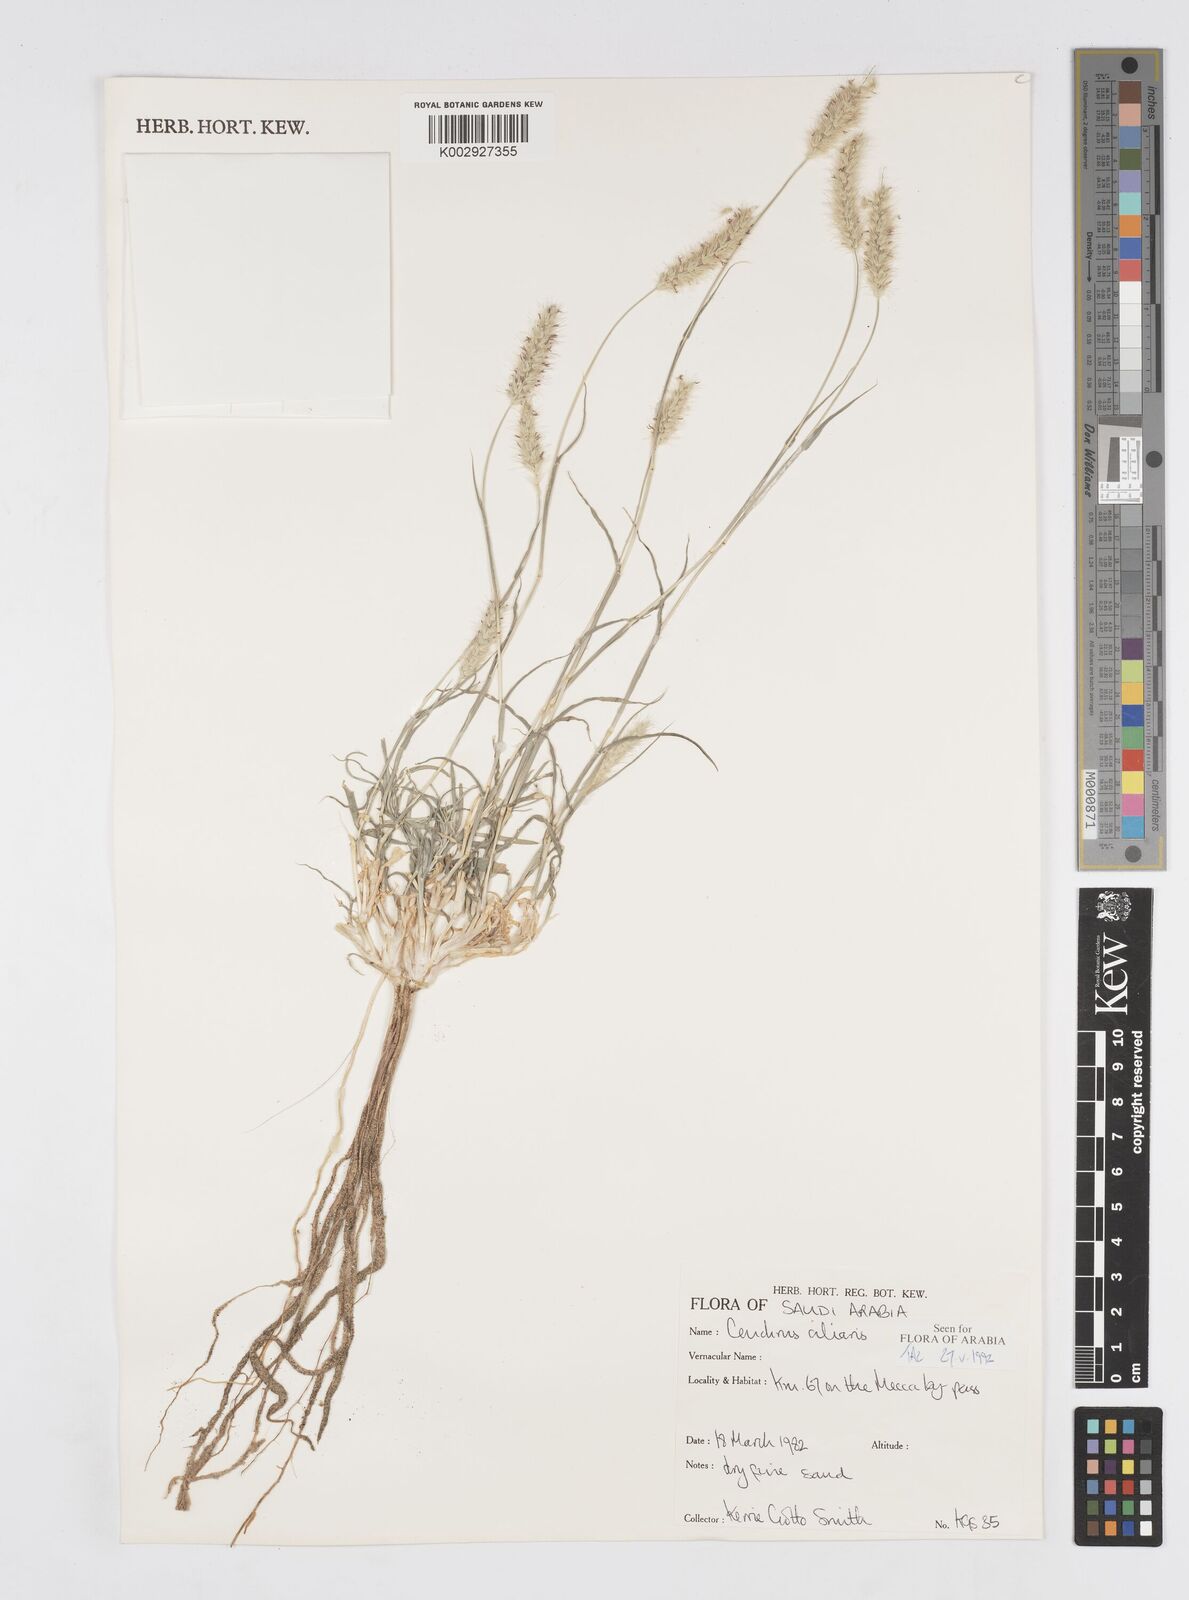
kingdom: Plantae
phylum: Tracheophyta
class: Liliopsida
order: Poales
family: Poaceae
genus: Cenchrus
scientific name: Cenchrus ciliaris
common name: Buffelgrass
